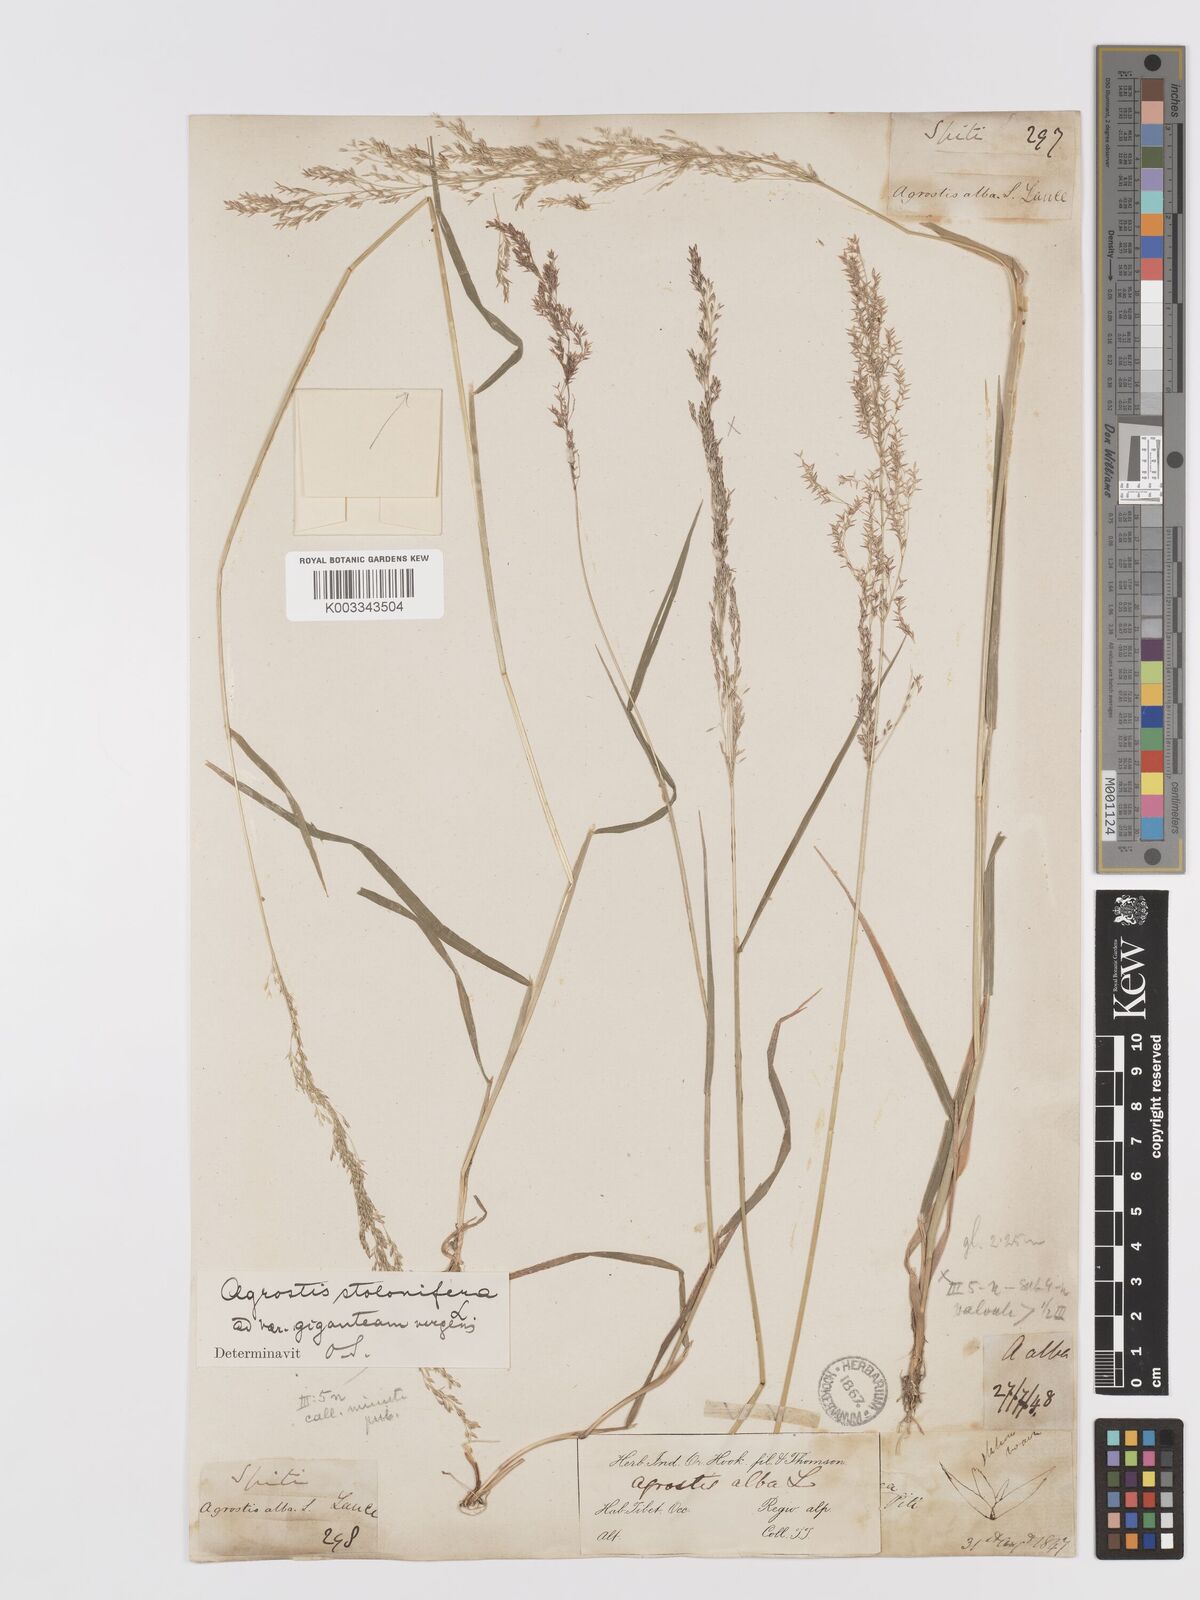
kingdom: Plantae
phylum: Tracheophyta
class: Liliopsida
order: Poales
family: Poaceae
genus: Agrostis
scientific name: Agrostis gigantea
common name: Black bent
